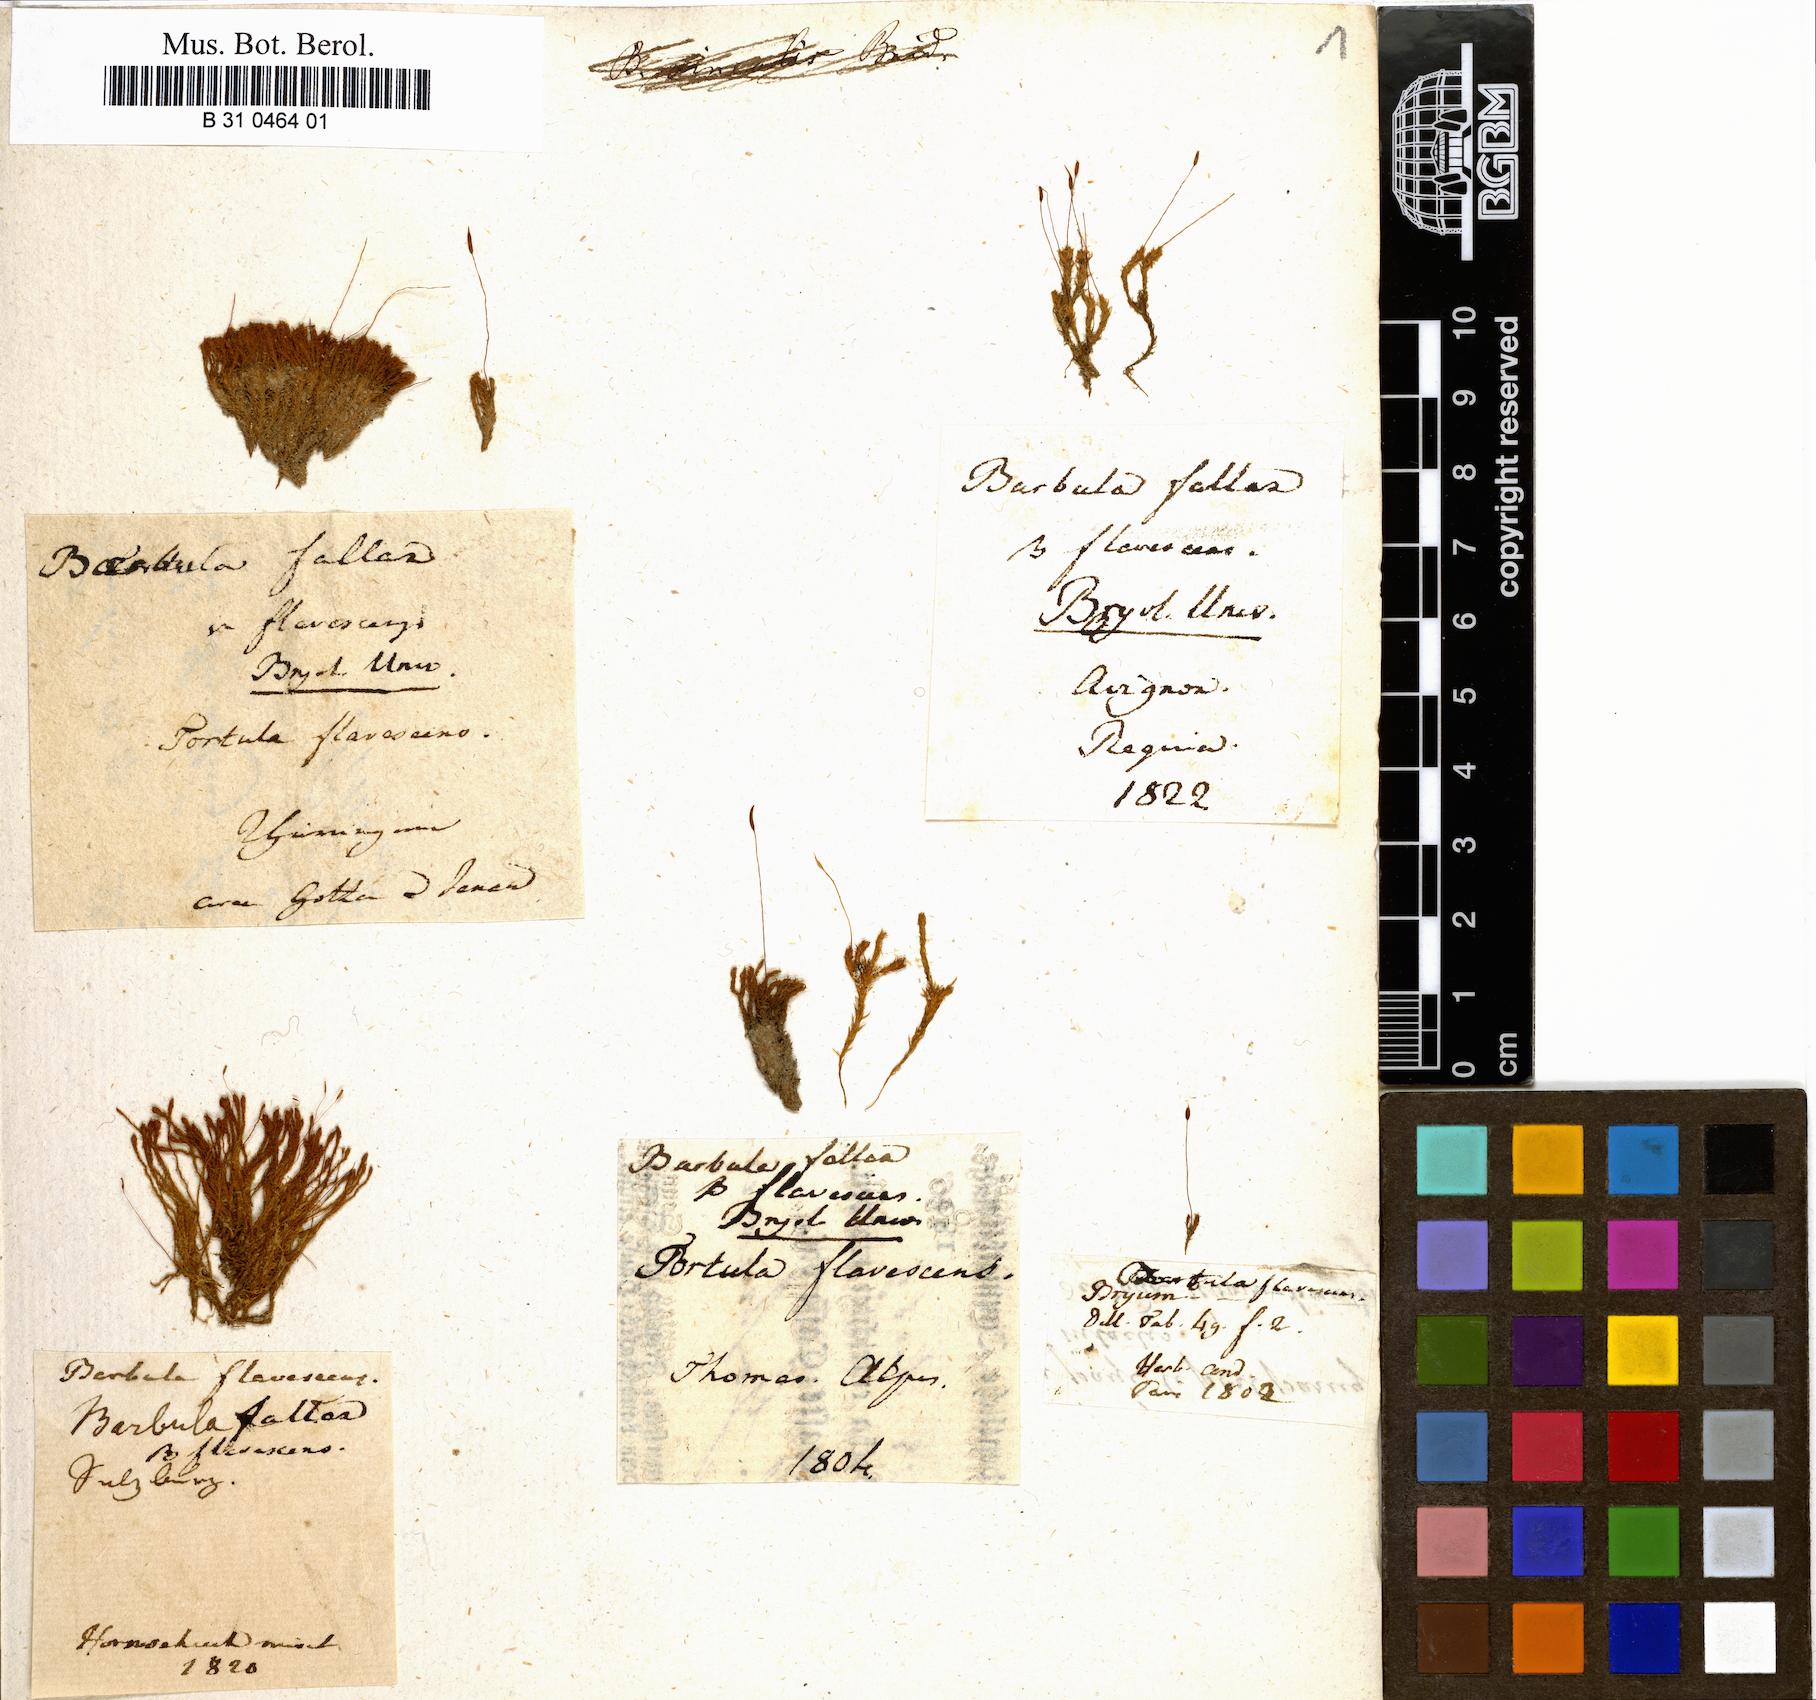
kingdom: Plantae
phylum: Bryophyta
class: Bryopsida
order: Pottiales
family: Pottiaceae
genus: Geheebia
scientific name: Geheebia fallax
